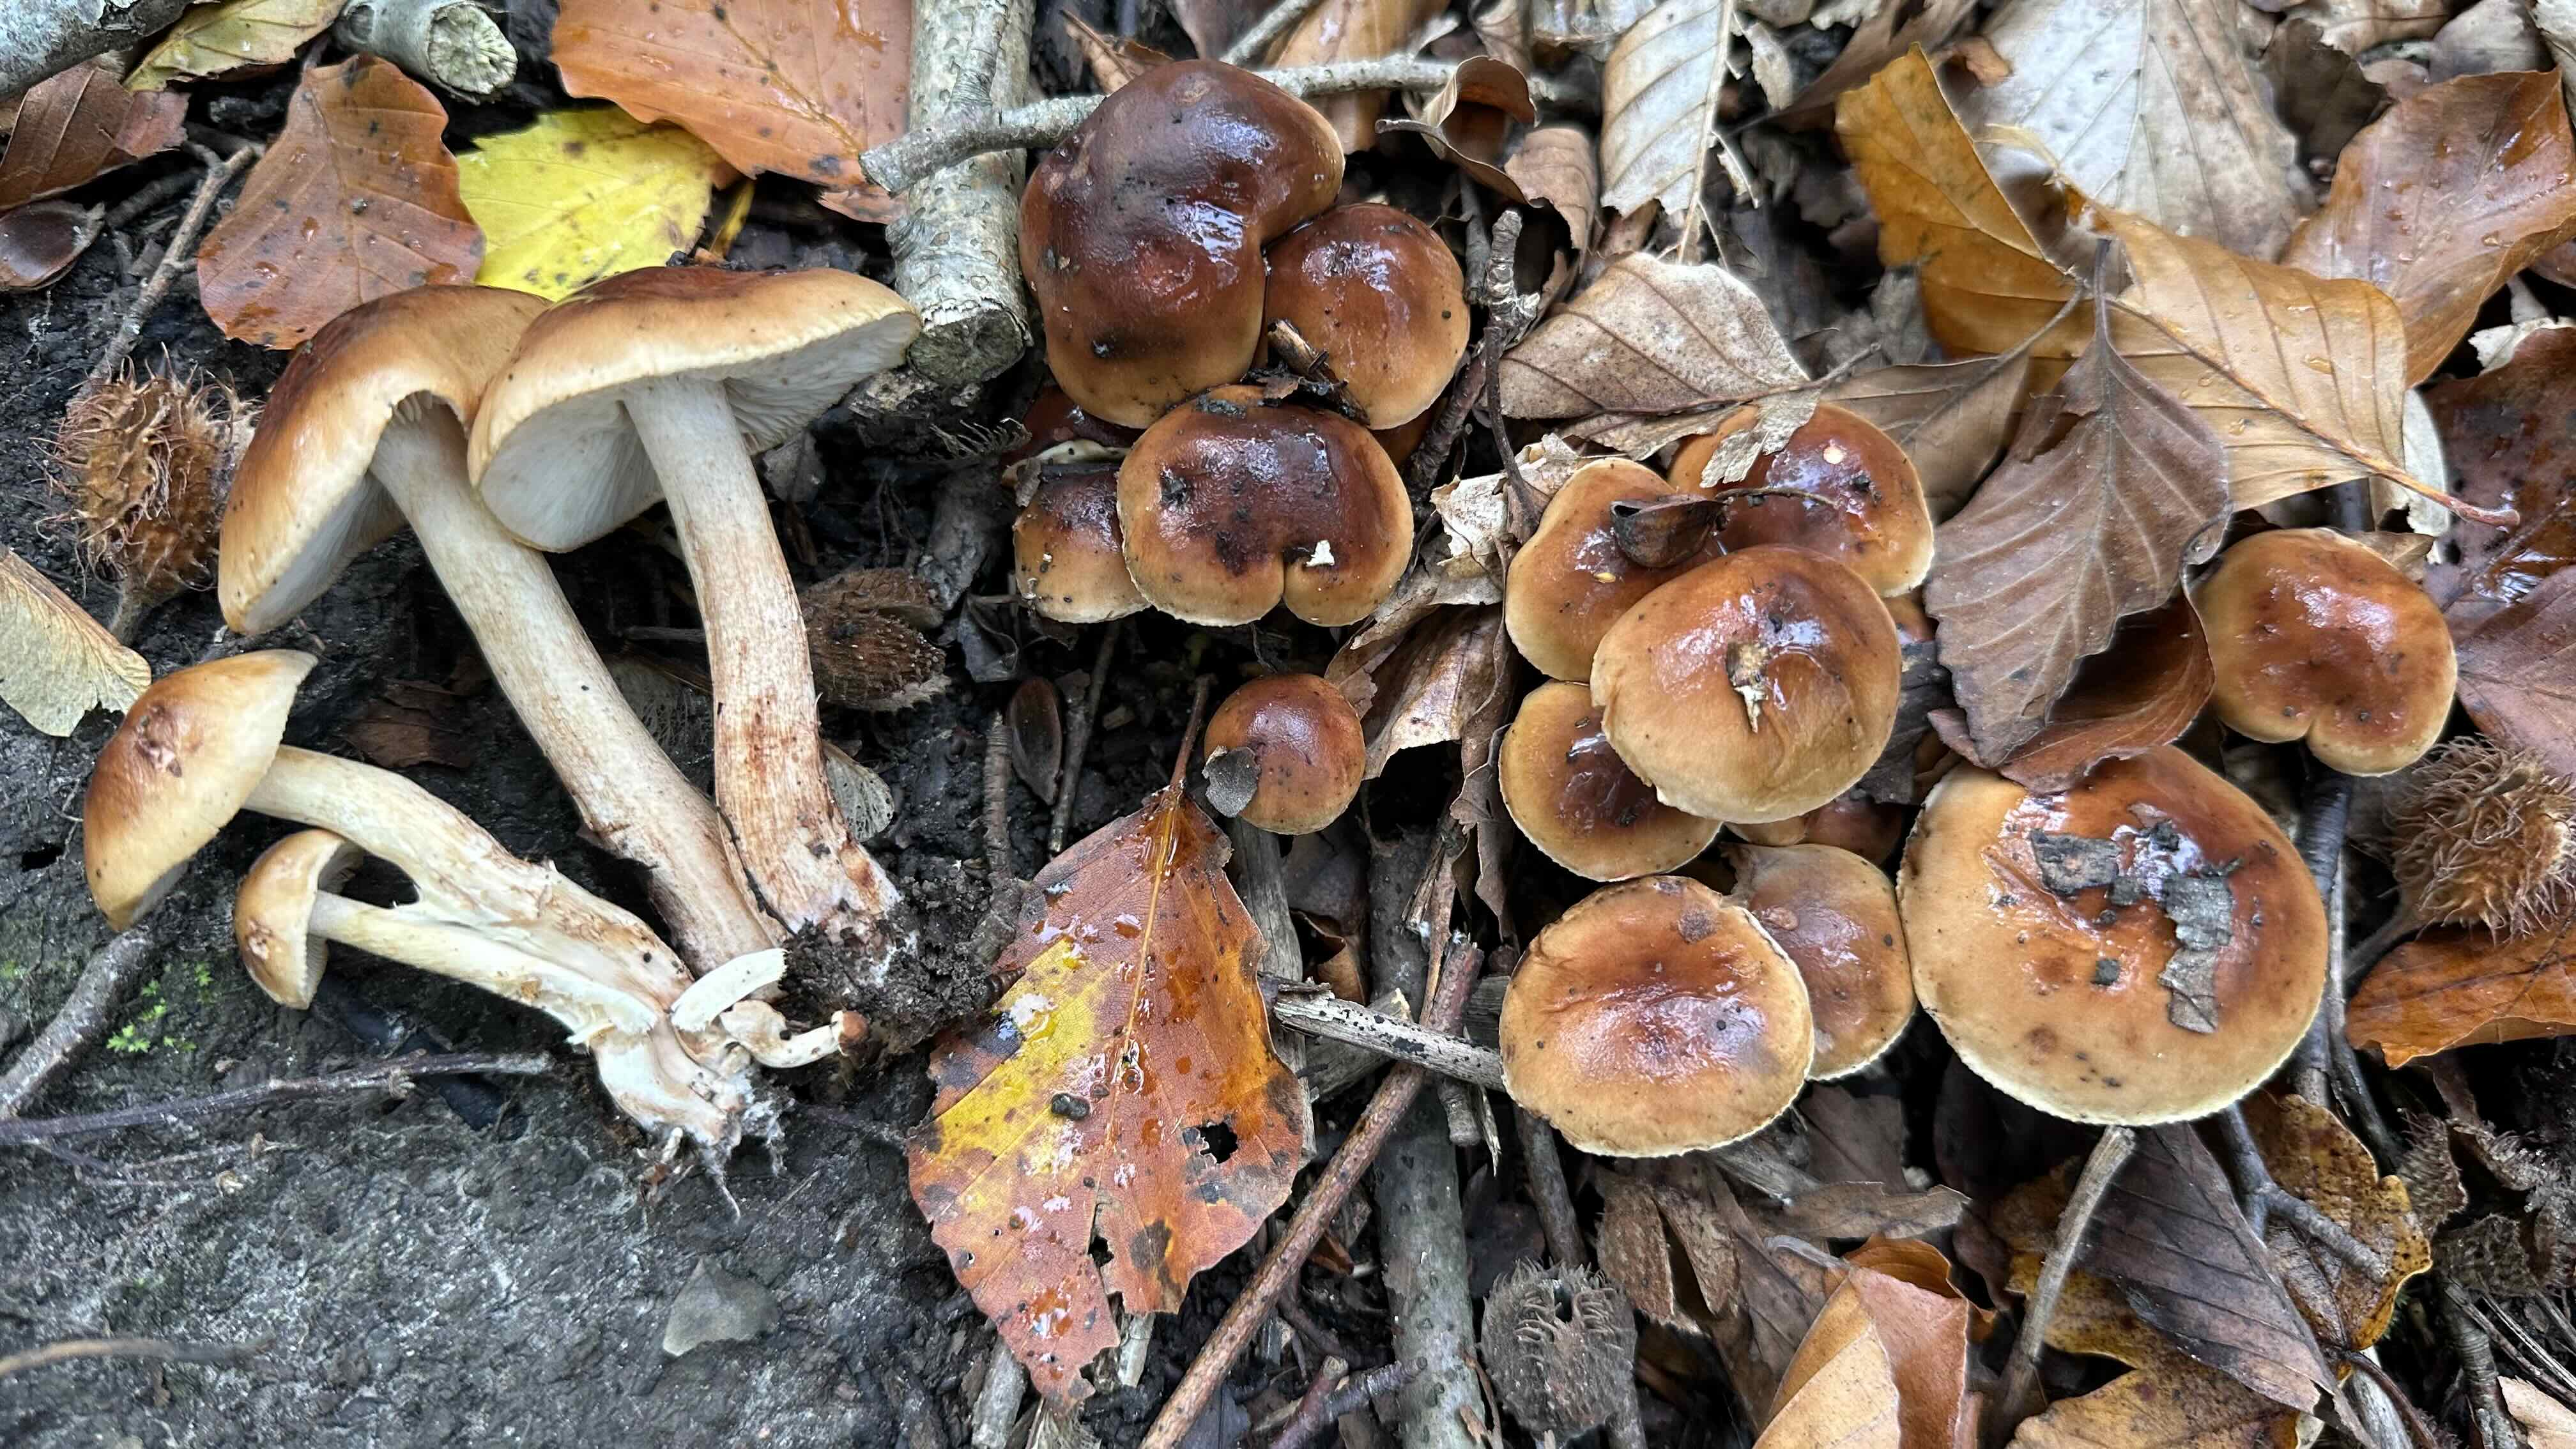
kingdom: Fungi
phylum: Basidiomycota
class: Agaricomycetes
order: Agaricales
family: Tricholomataceae
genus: Tricholoma
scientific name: Tricholoma ustale
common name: sveden ridderhat
